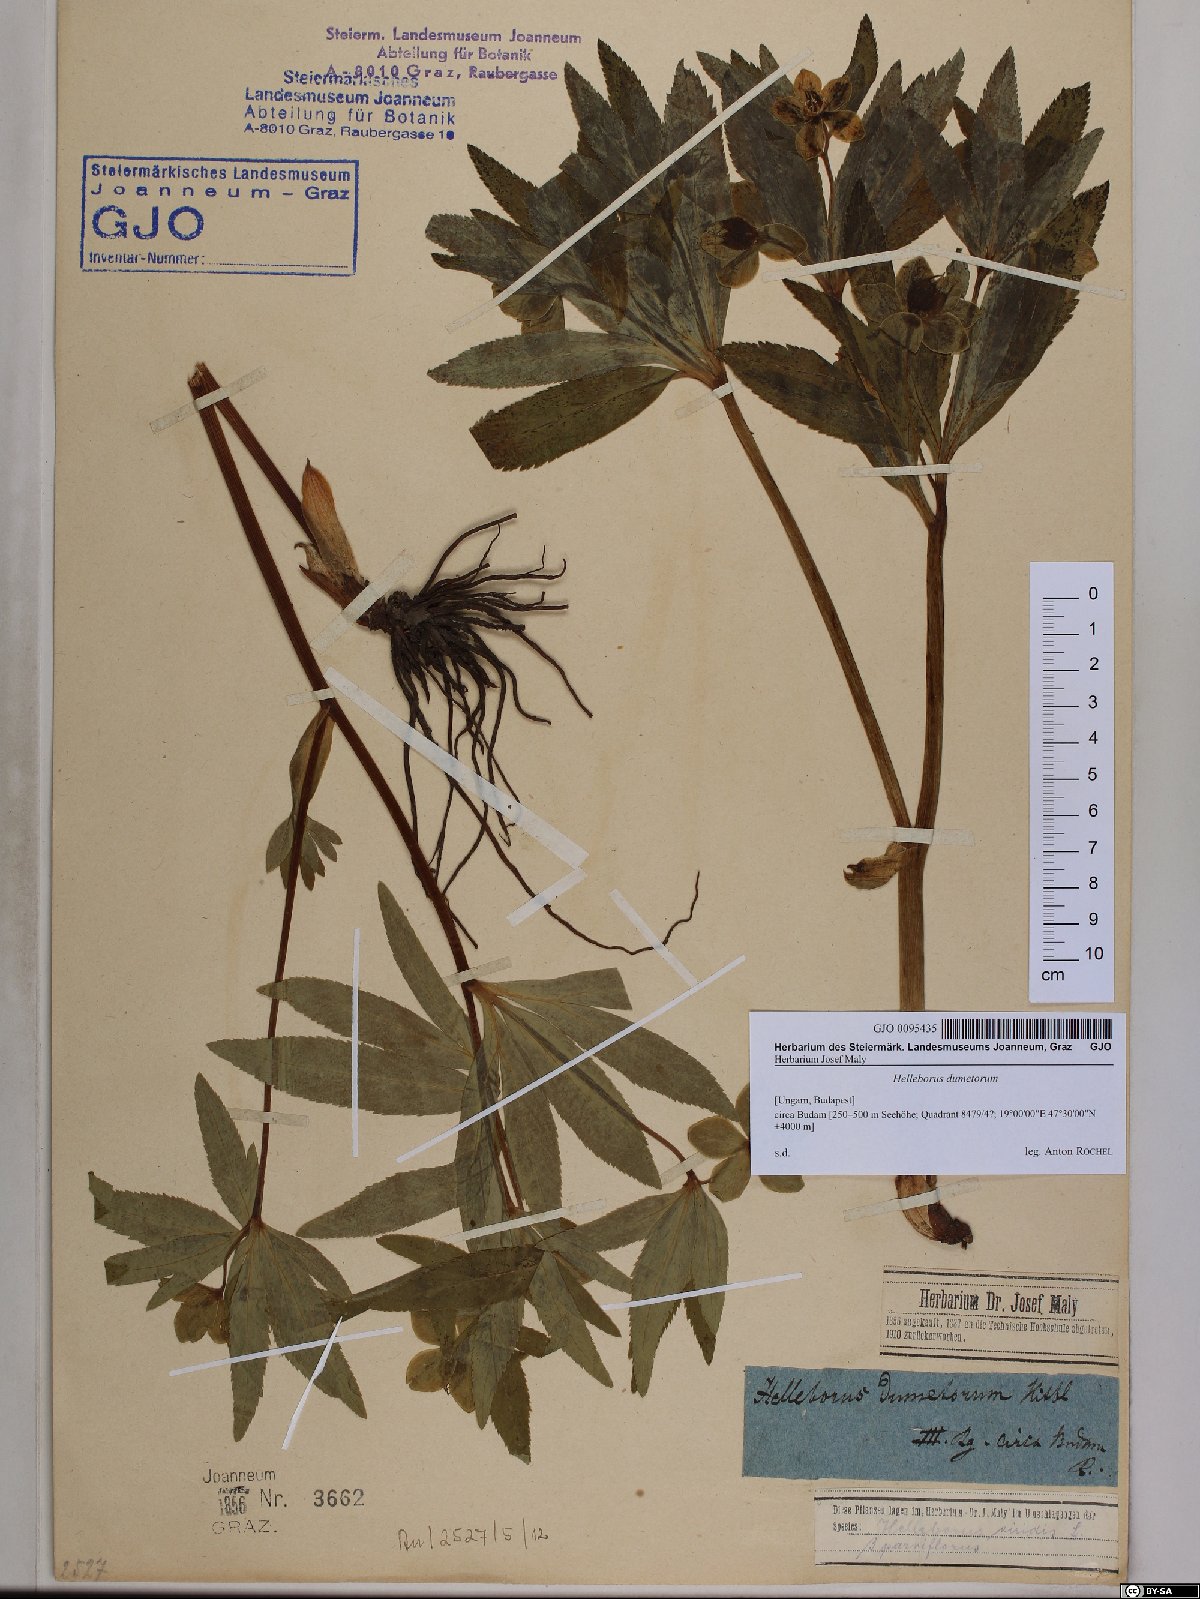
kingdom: Plantae
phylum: Tracheophyta
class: Magnoliopsida
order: Ranunculales
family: Ranunculaceae
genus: Helleborus
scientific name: Helleborus dumetorum
